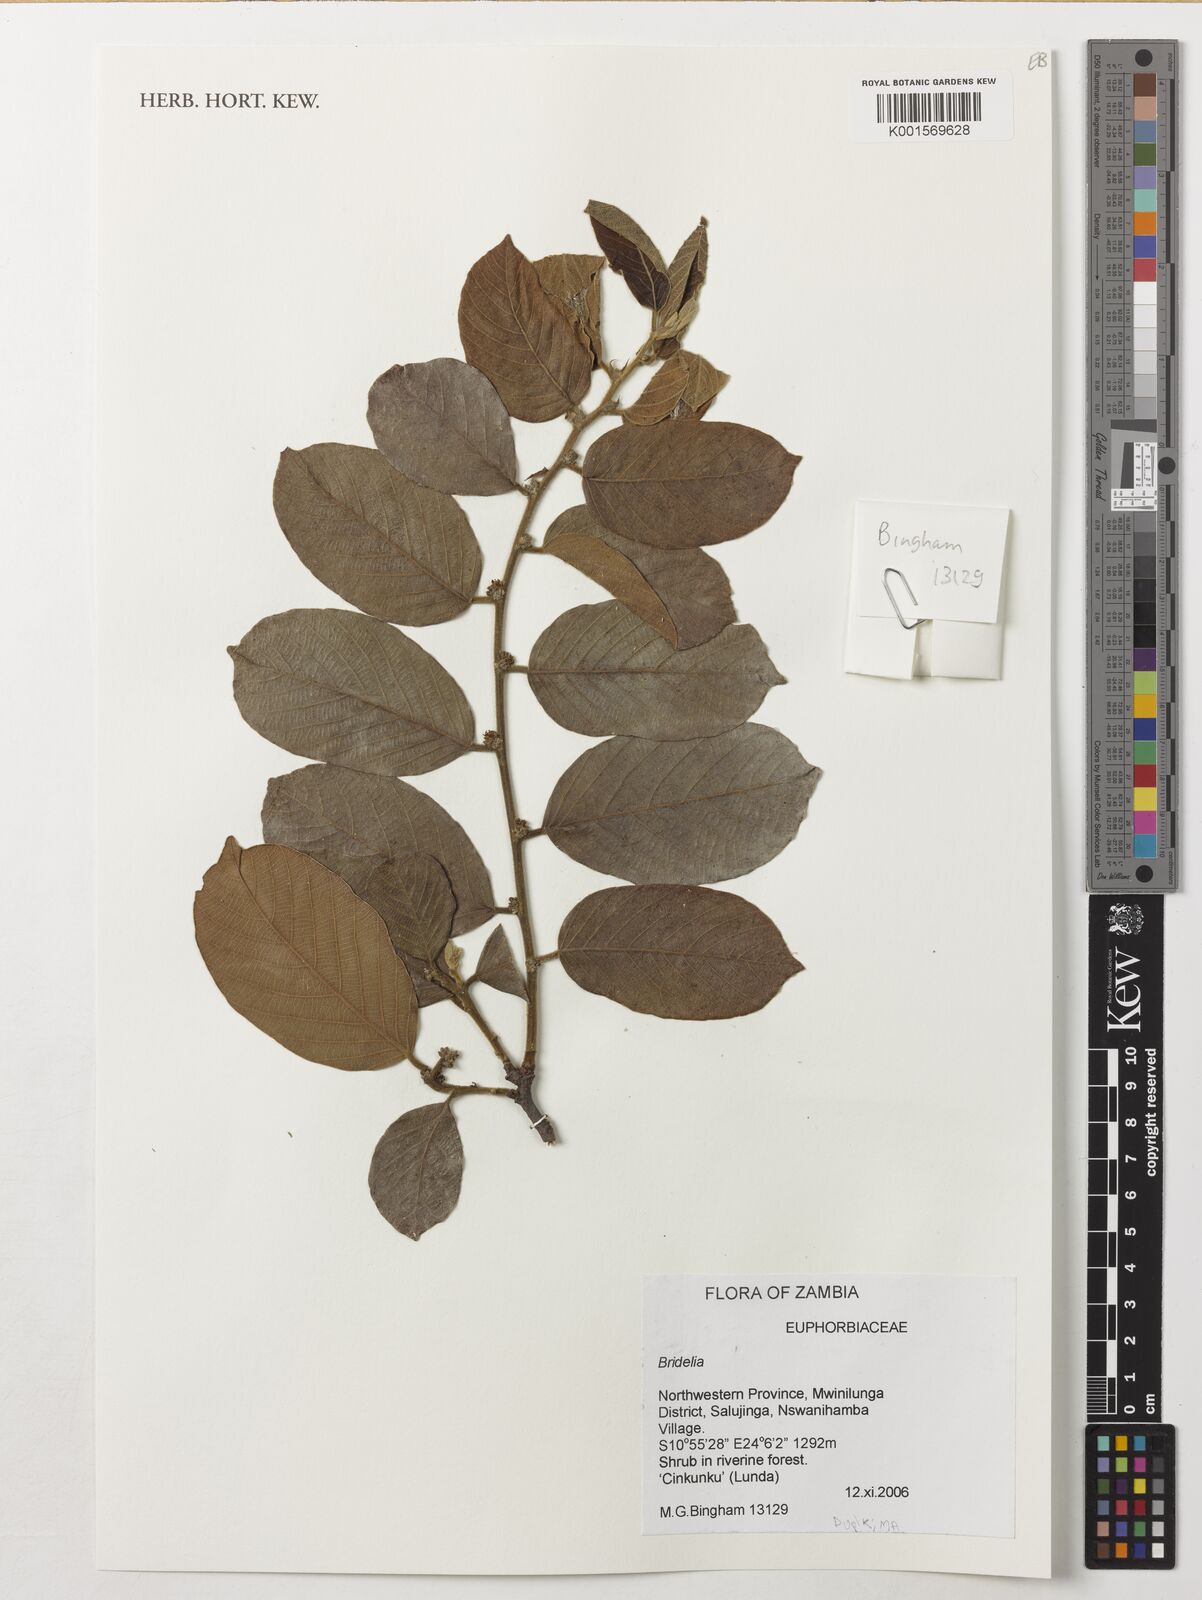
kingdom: Plantae
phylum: Tracheophyta
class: Magnoliopsida
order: Malpighiales
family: Phyllanthaceae
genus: Bridelia
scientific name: Bridelia
